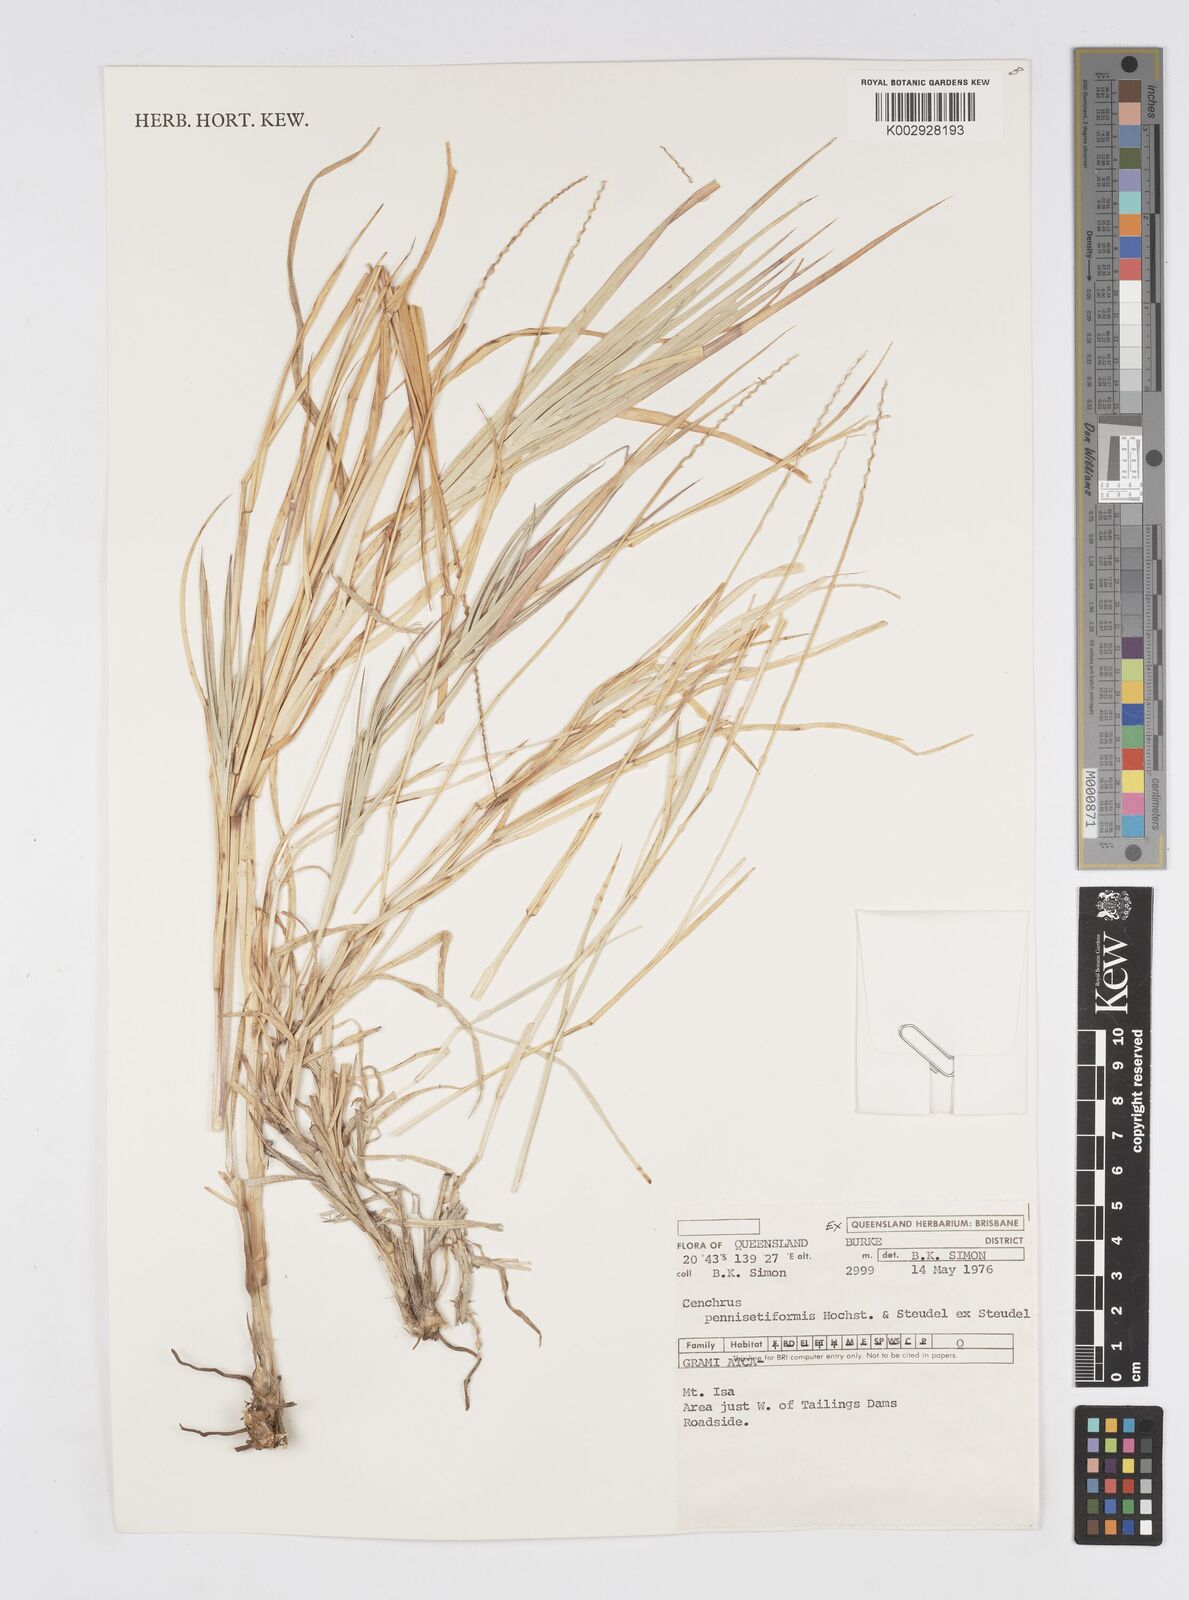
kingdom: Plantae
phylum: Tracheophyta
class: Liliopsida
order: Poales
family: Poaceae
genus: Cenchrus
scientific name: Cenchrus pennisetiformis
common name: Cloncurry
